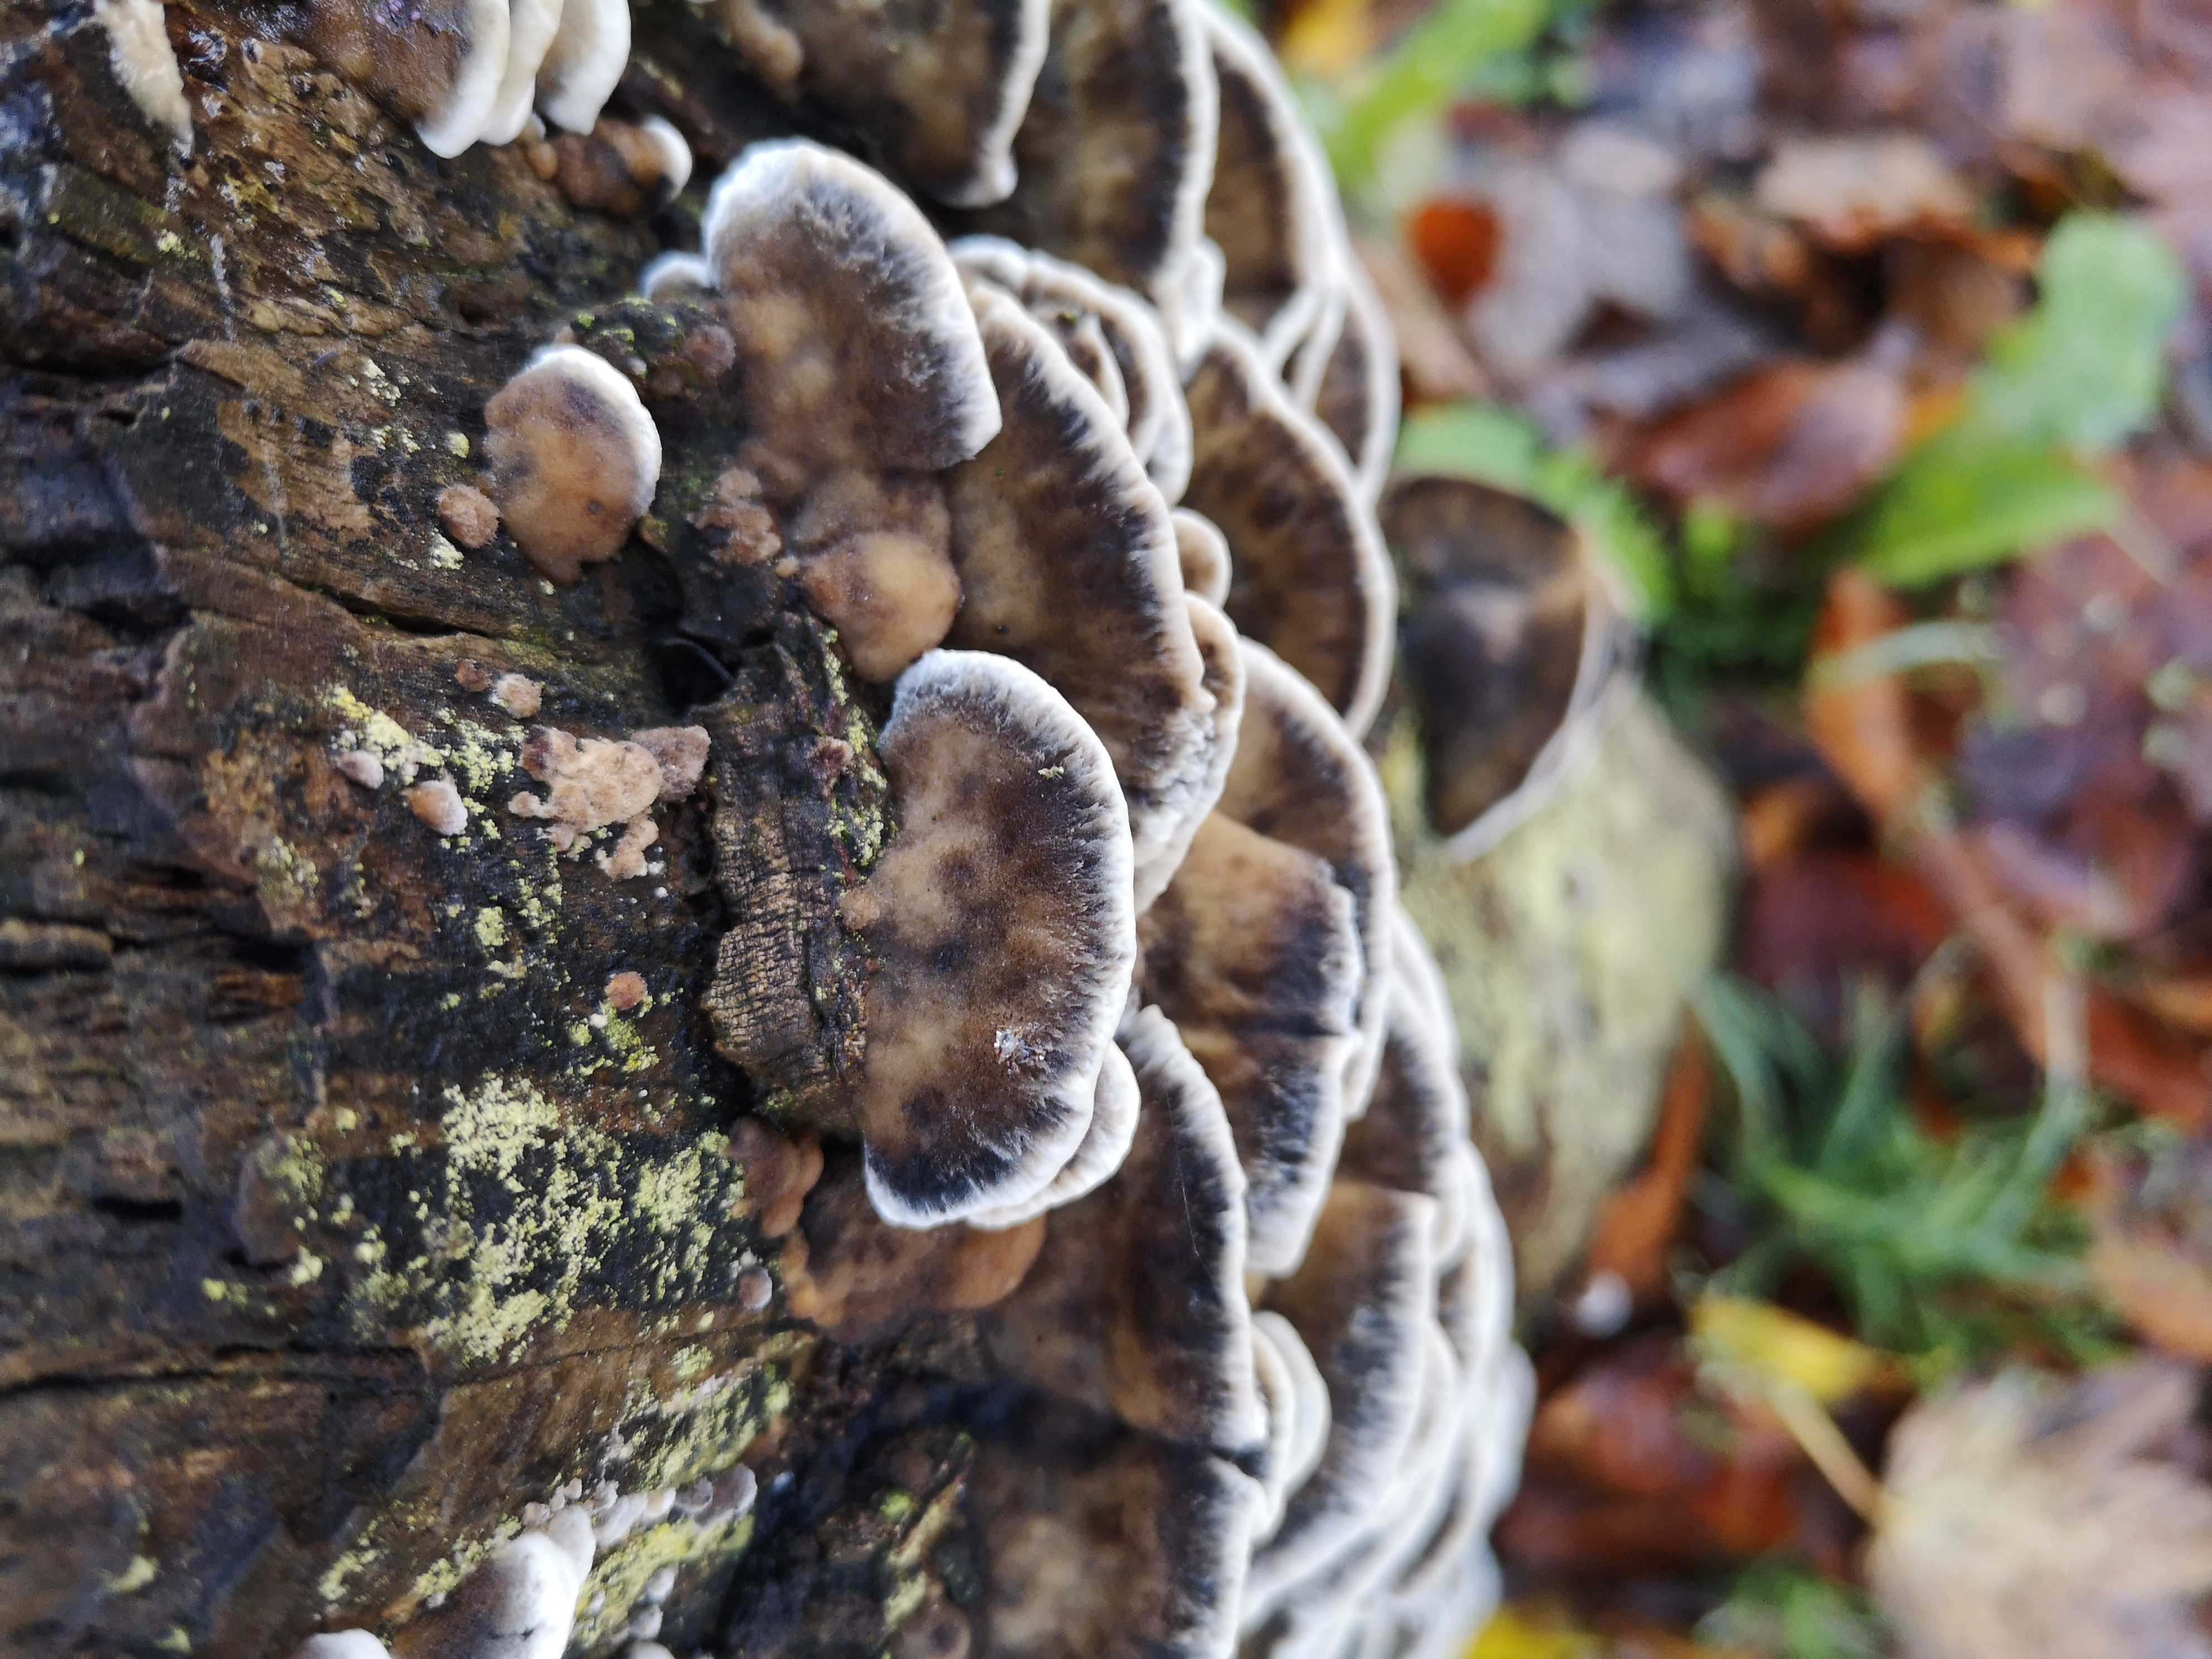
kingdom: Fungi
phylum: Basidiomycota
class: Agaricomycetes
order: Polyporales
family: Polyporaceae
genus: Trametes
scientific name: Trametes versicolor
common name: broget læderporesvamp
